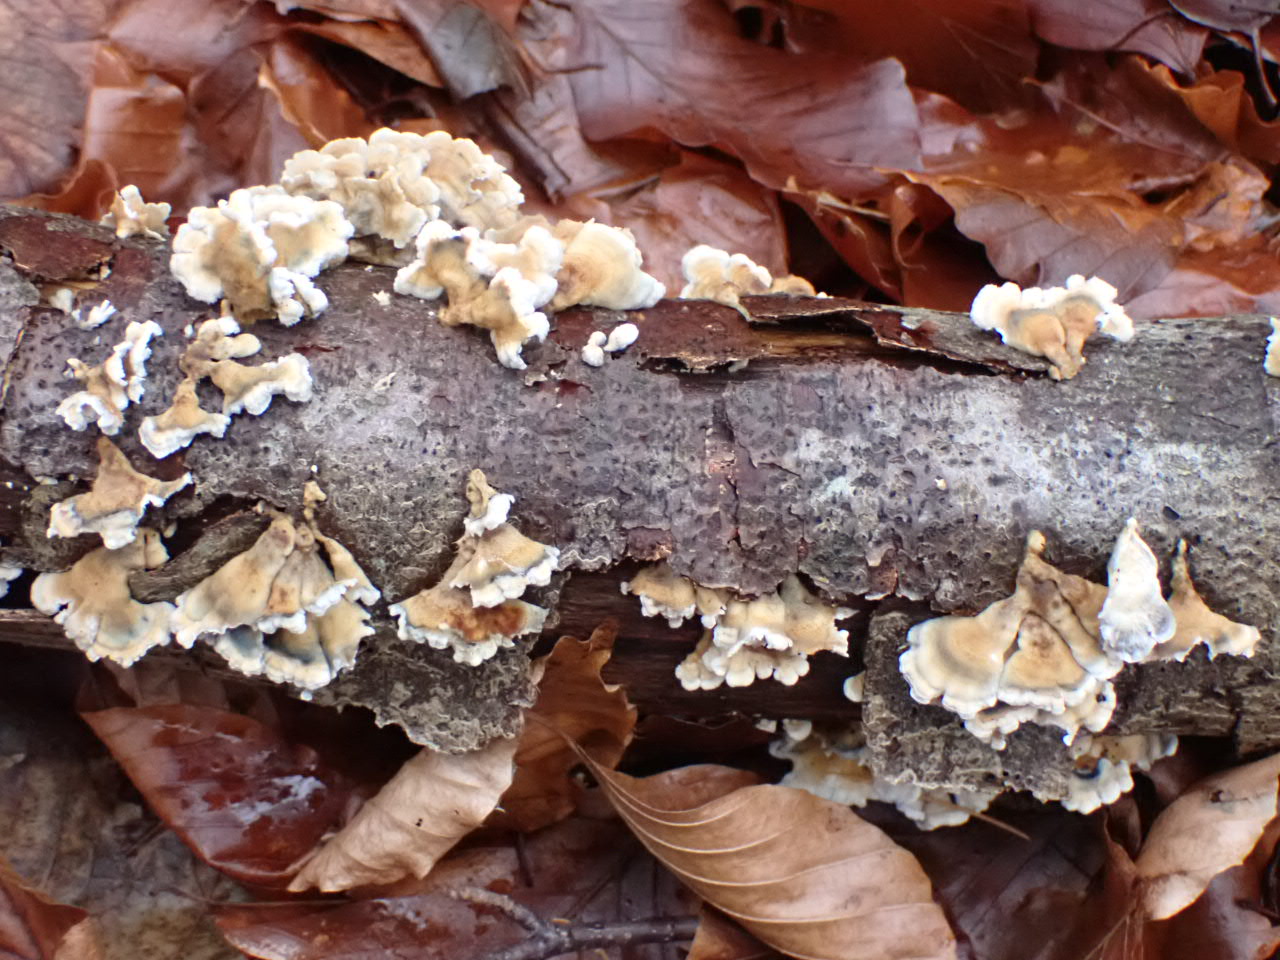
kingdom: Fungi
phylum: Basidiomycota
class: Agaricomycetes
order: Amylocorticiales
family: Amylocorticiaceae
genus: Plicaturopsis
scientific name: Plicaturopsis crispa
